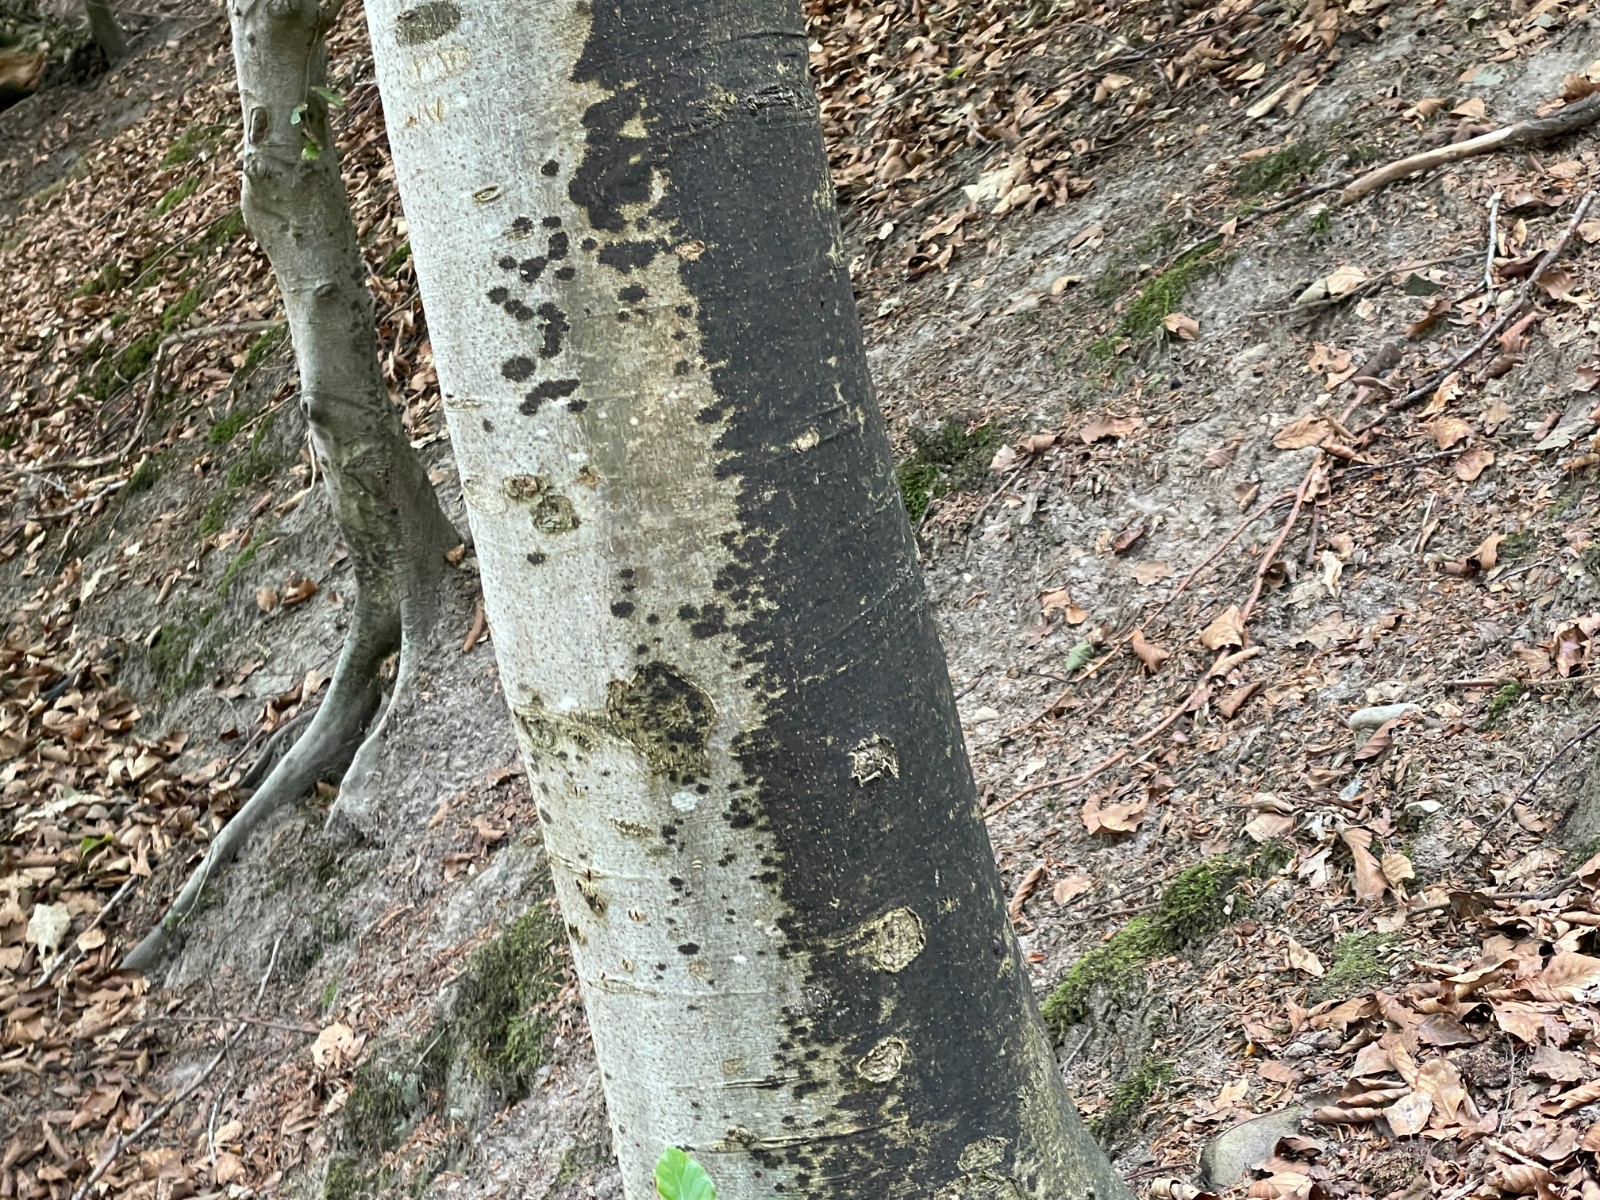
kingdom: Fungi
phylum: Ascomycota
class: Leotiomycetes
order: Rhytismatales
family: Ascodichaenaceae
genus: Ascodichaena
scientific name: Ascodichaena rugosa
